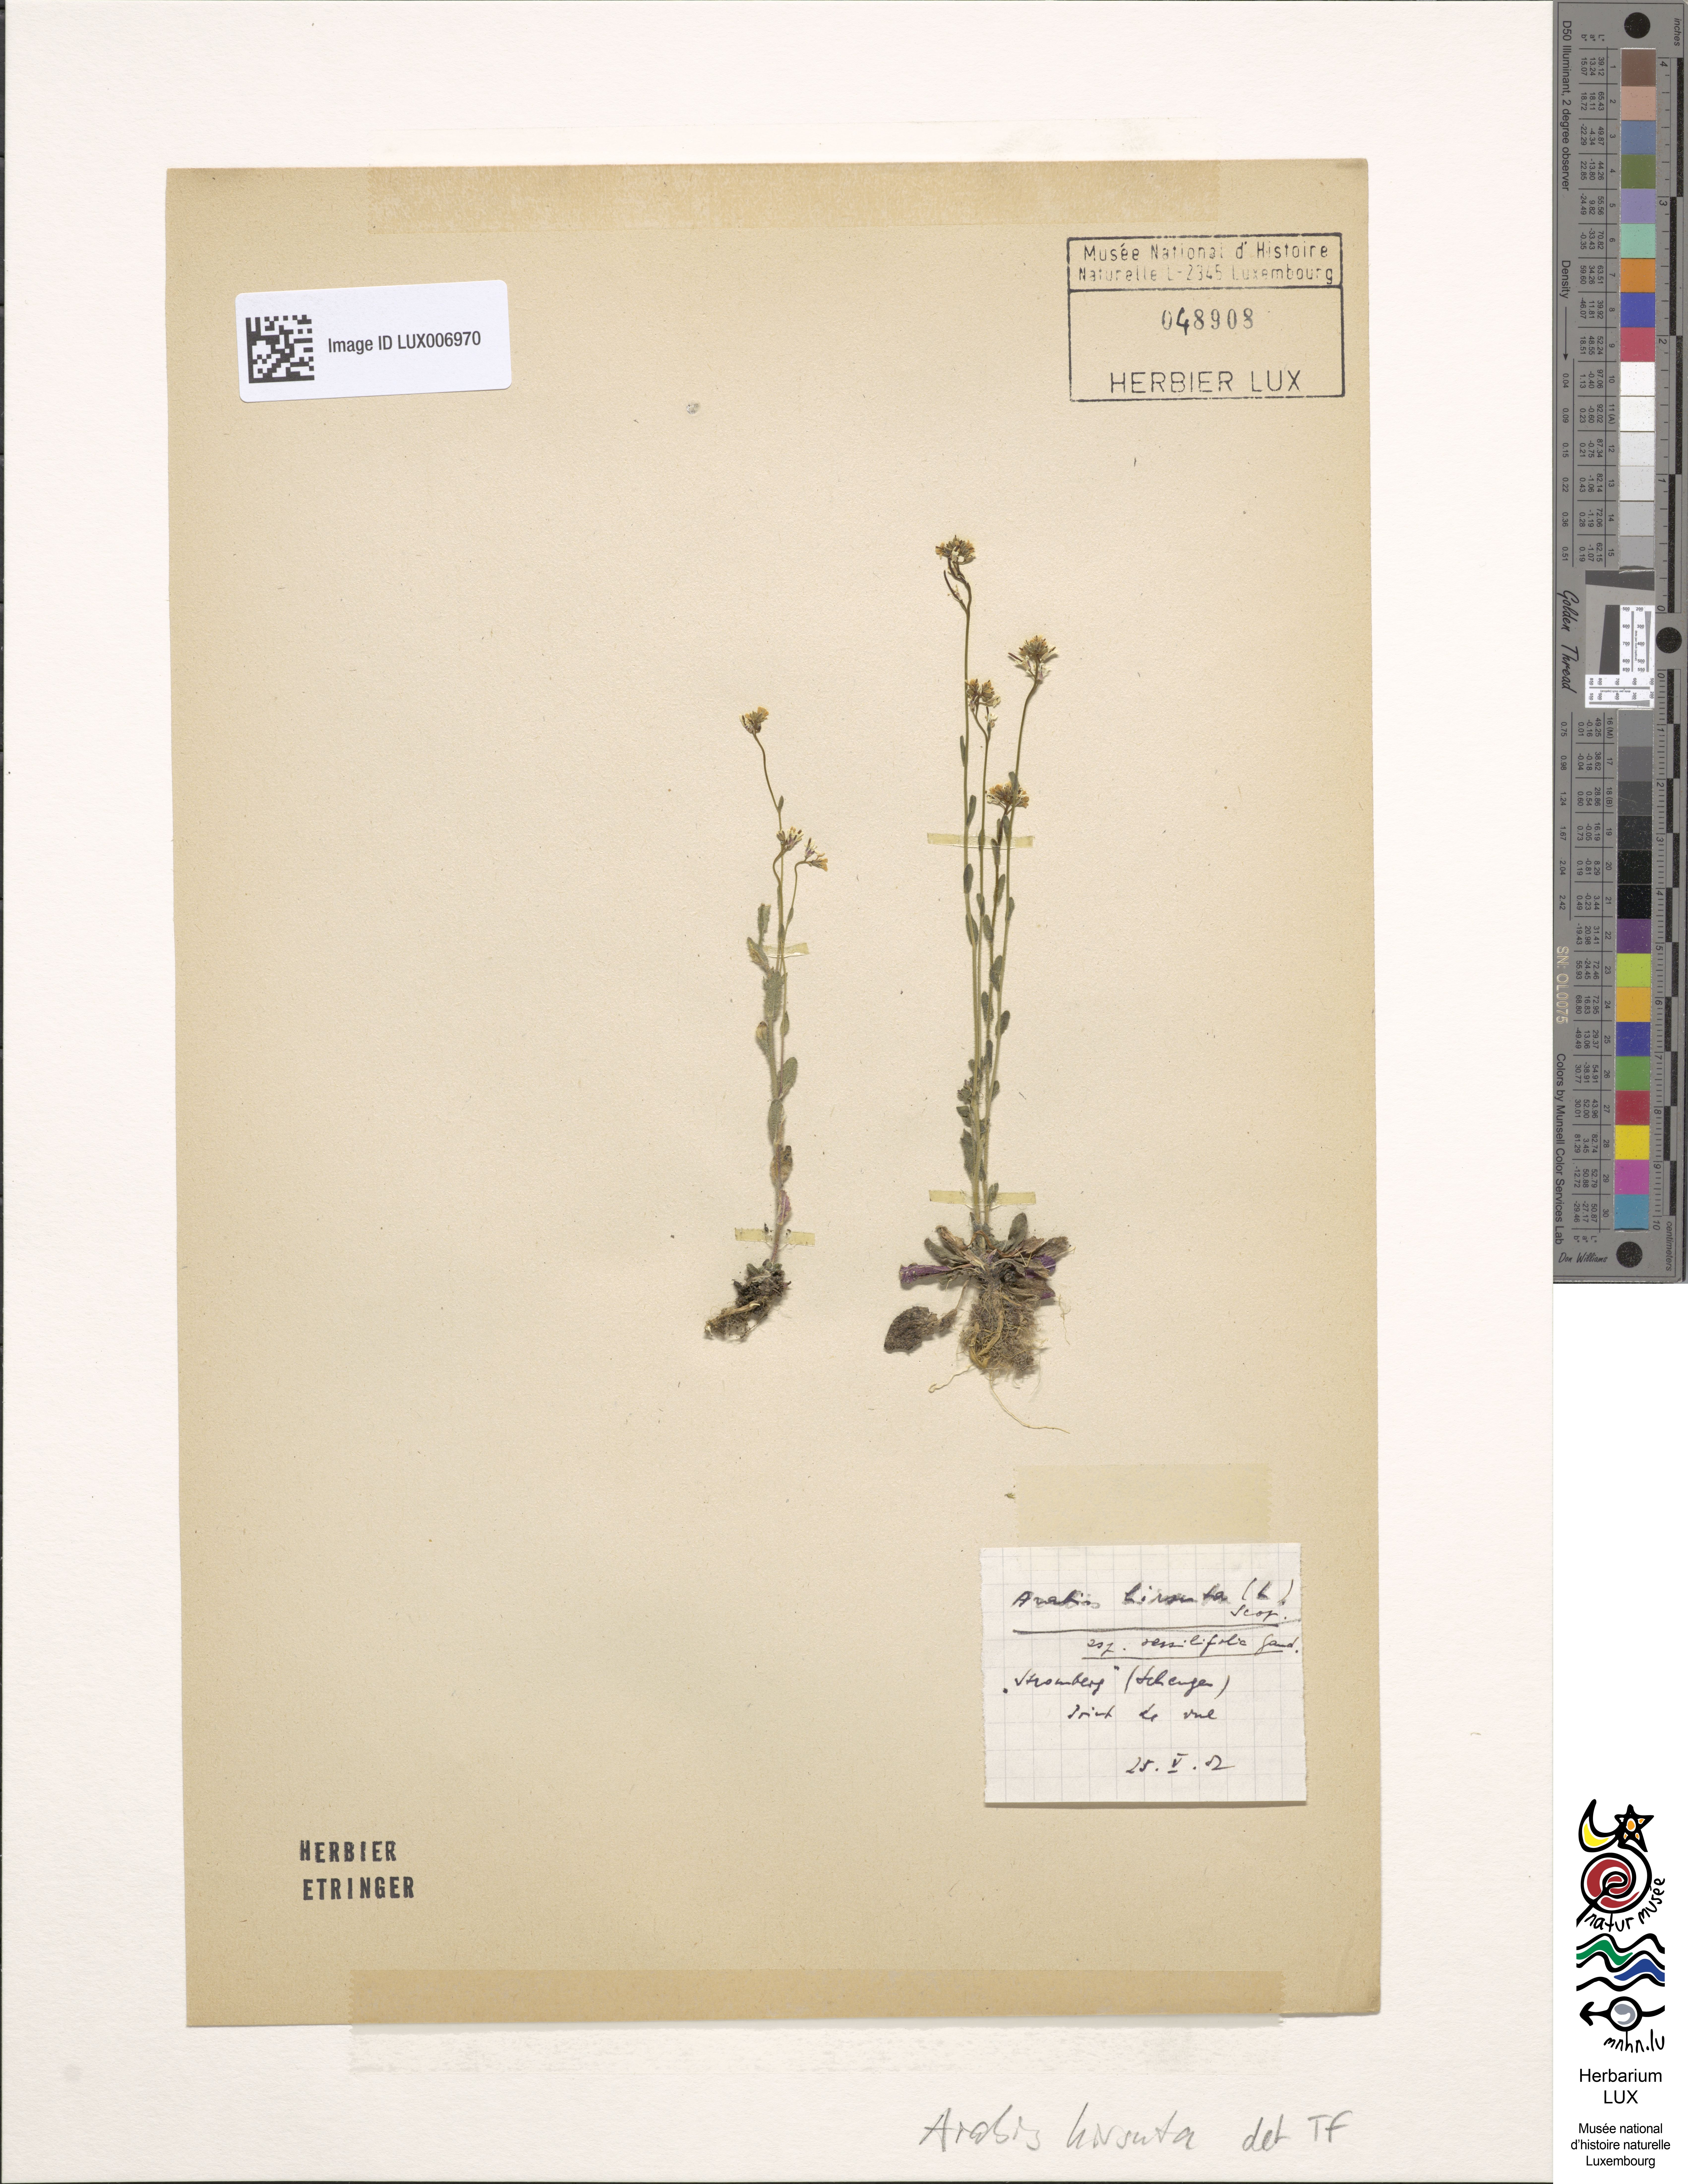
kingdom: Plantae
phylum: Tracheophyta
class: Magnoliopsida
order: Brassicales
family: Brassicaceae
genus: Arabis
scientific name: Arabis hirsuta
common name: Hairy rock-cress
